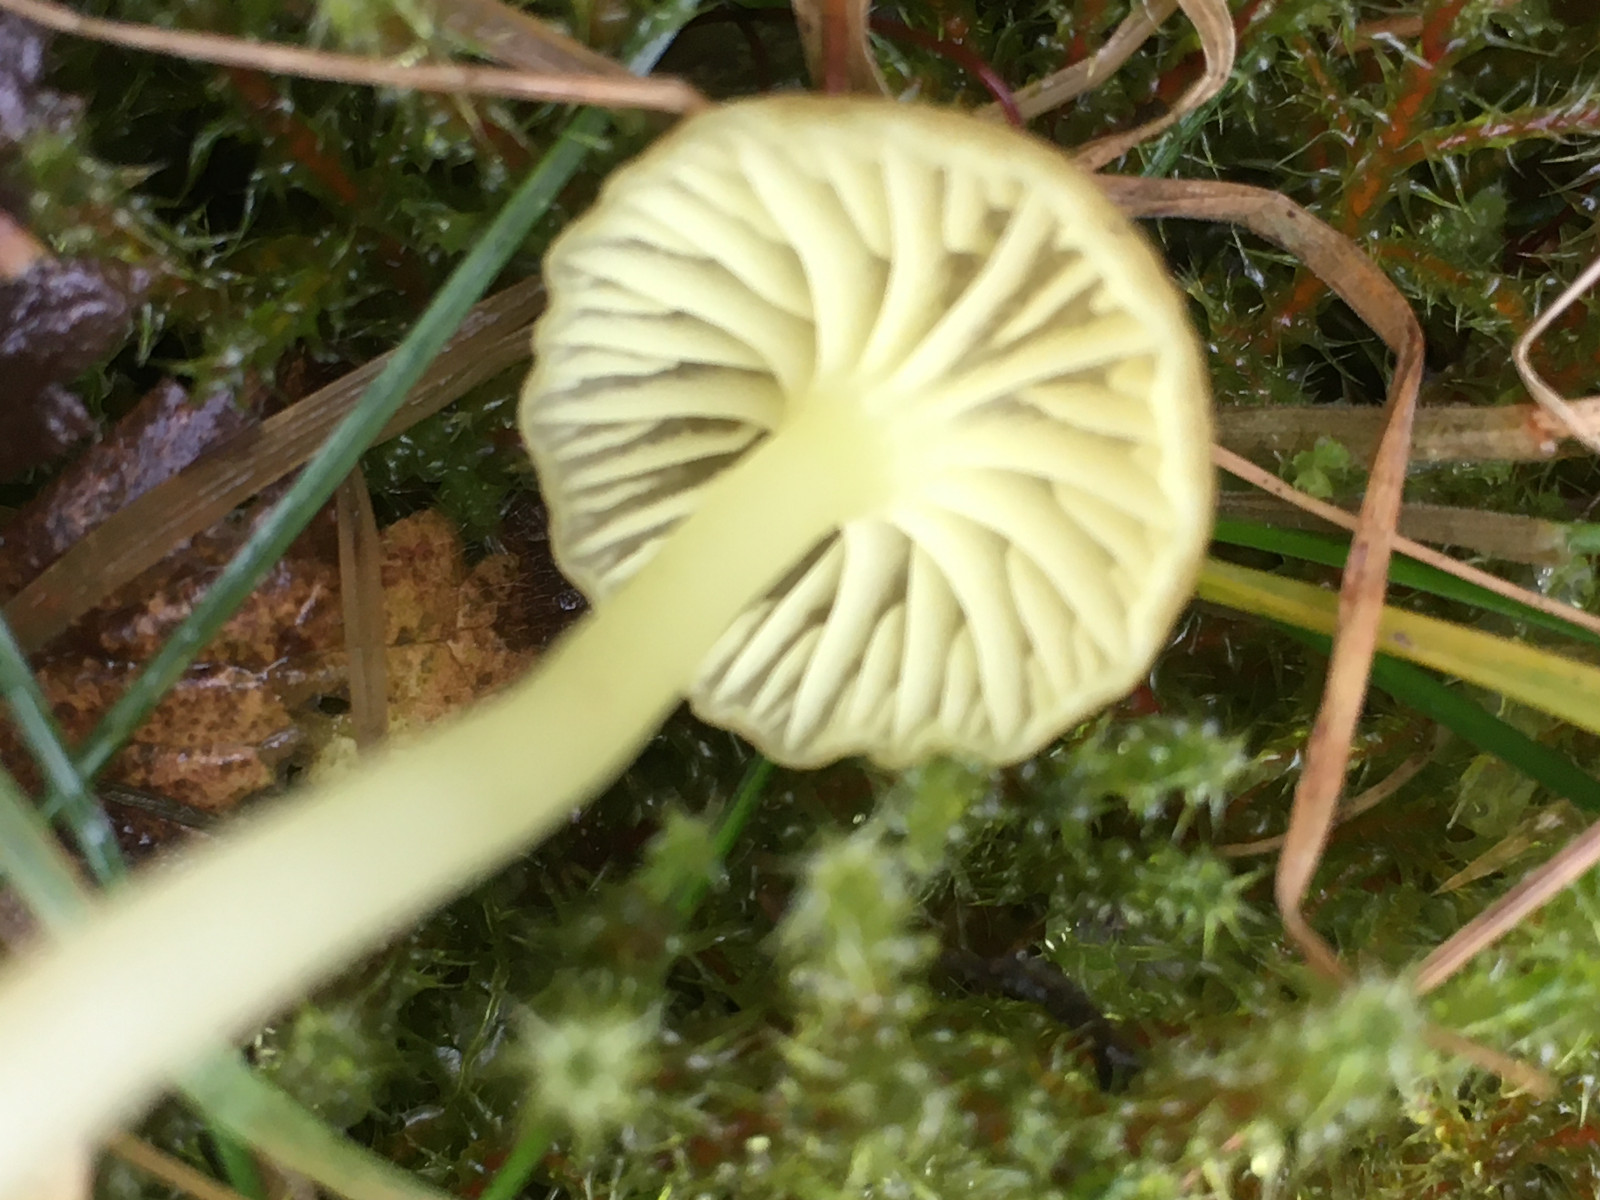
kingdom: Fungi
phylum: Basidiomycota
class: Agaricomycetes
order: Agaricales
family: Hygrophoraceae
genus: Chrysomphalina
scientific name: Chrysomphalina grossula
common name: stød-gyldenblad
